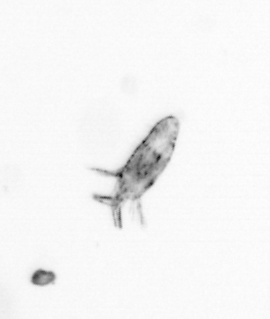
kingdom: Animalia
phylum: Arthropoda
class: Copepoda
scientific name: Copepoda
